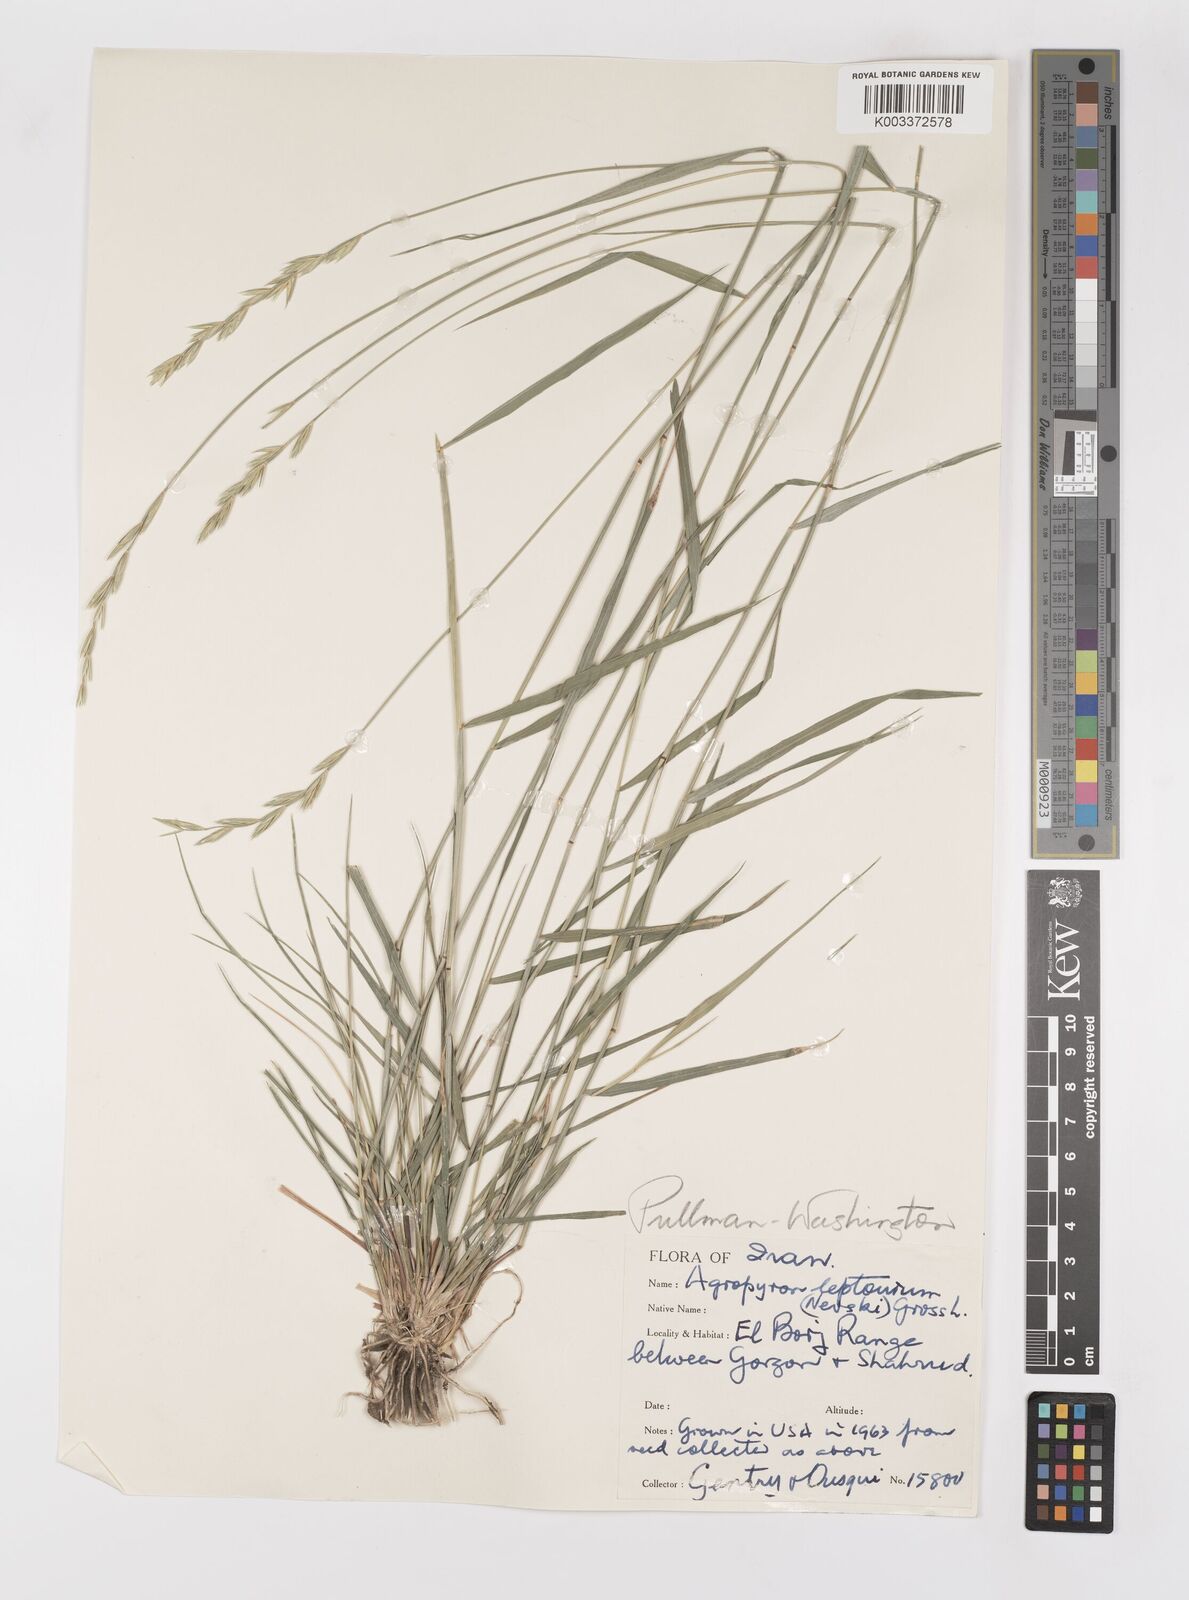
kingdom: Plantae
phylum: Tracheophyta
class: Liliopsida
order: Poales
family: Poaceae
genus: Elymus
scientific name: Elymus transhyrcanus
